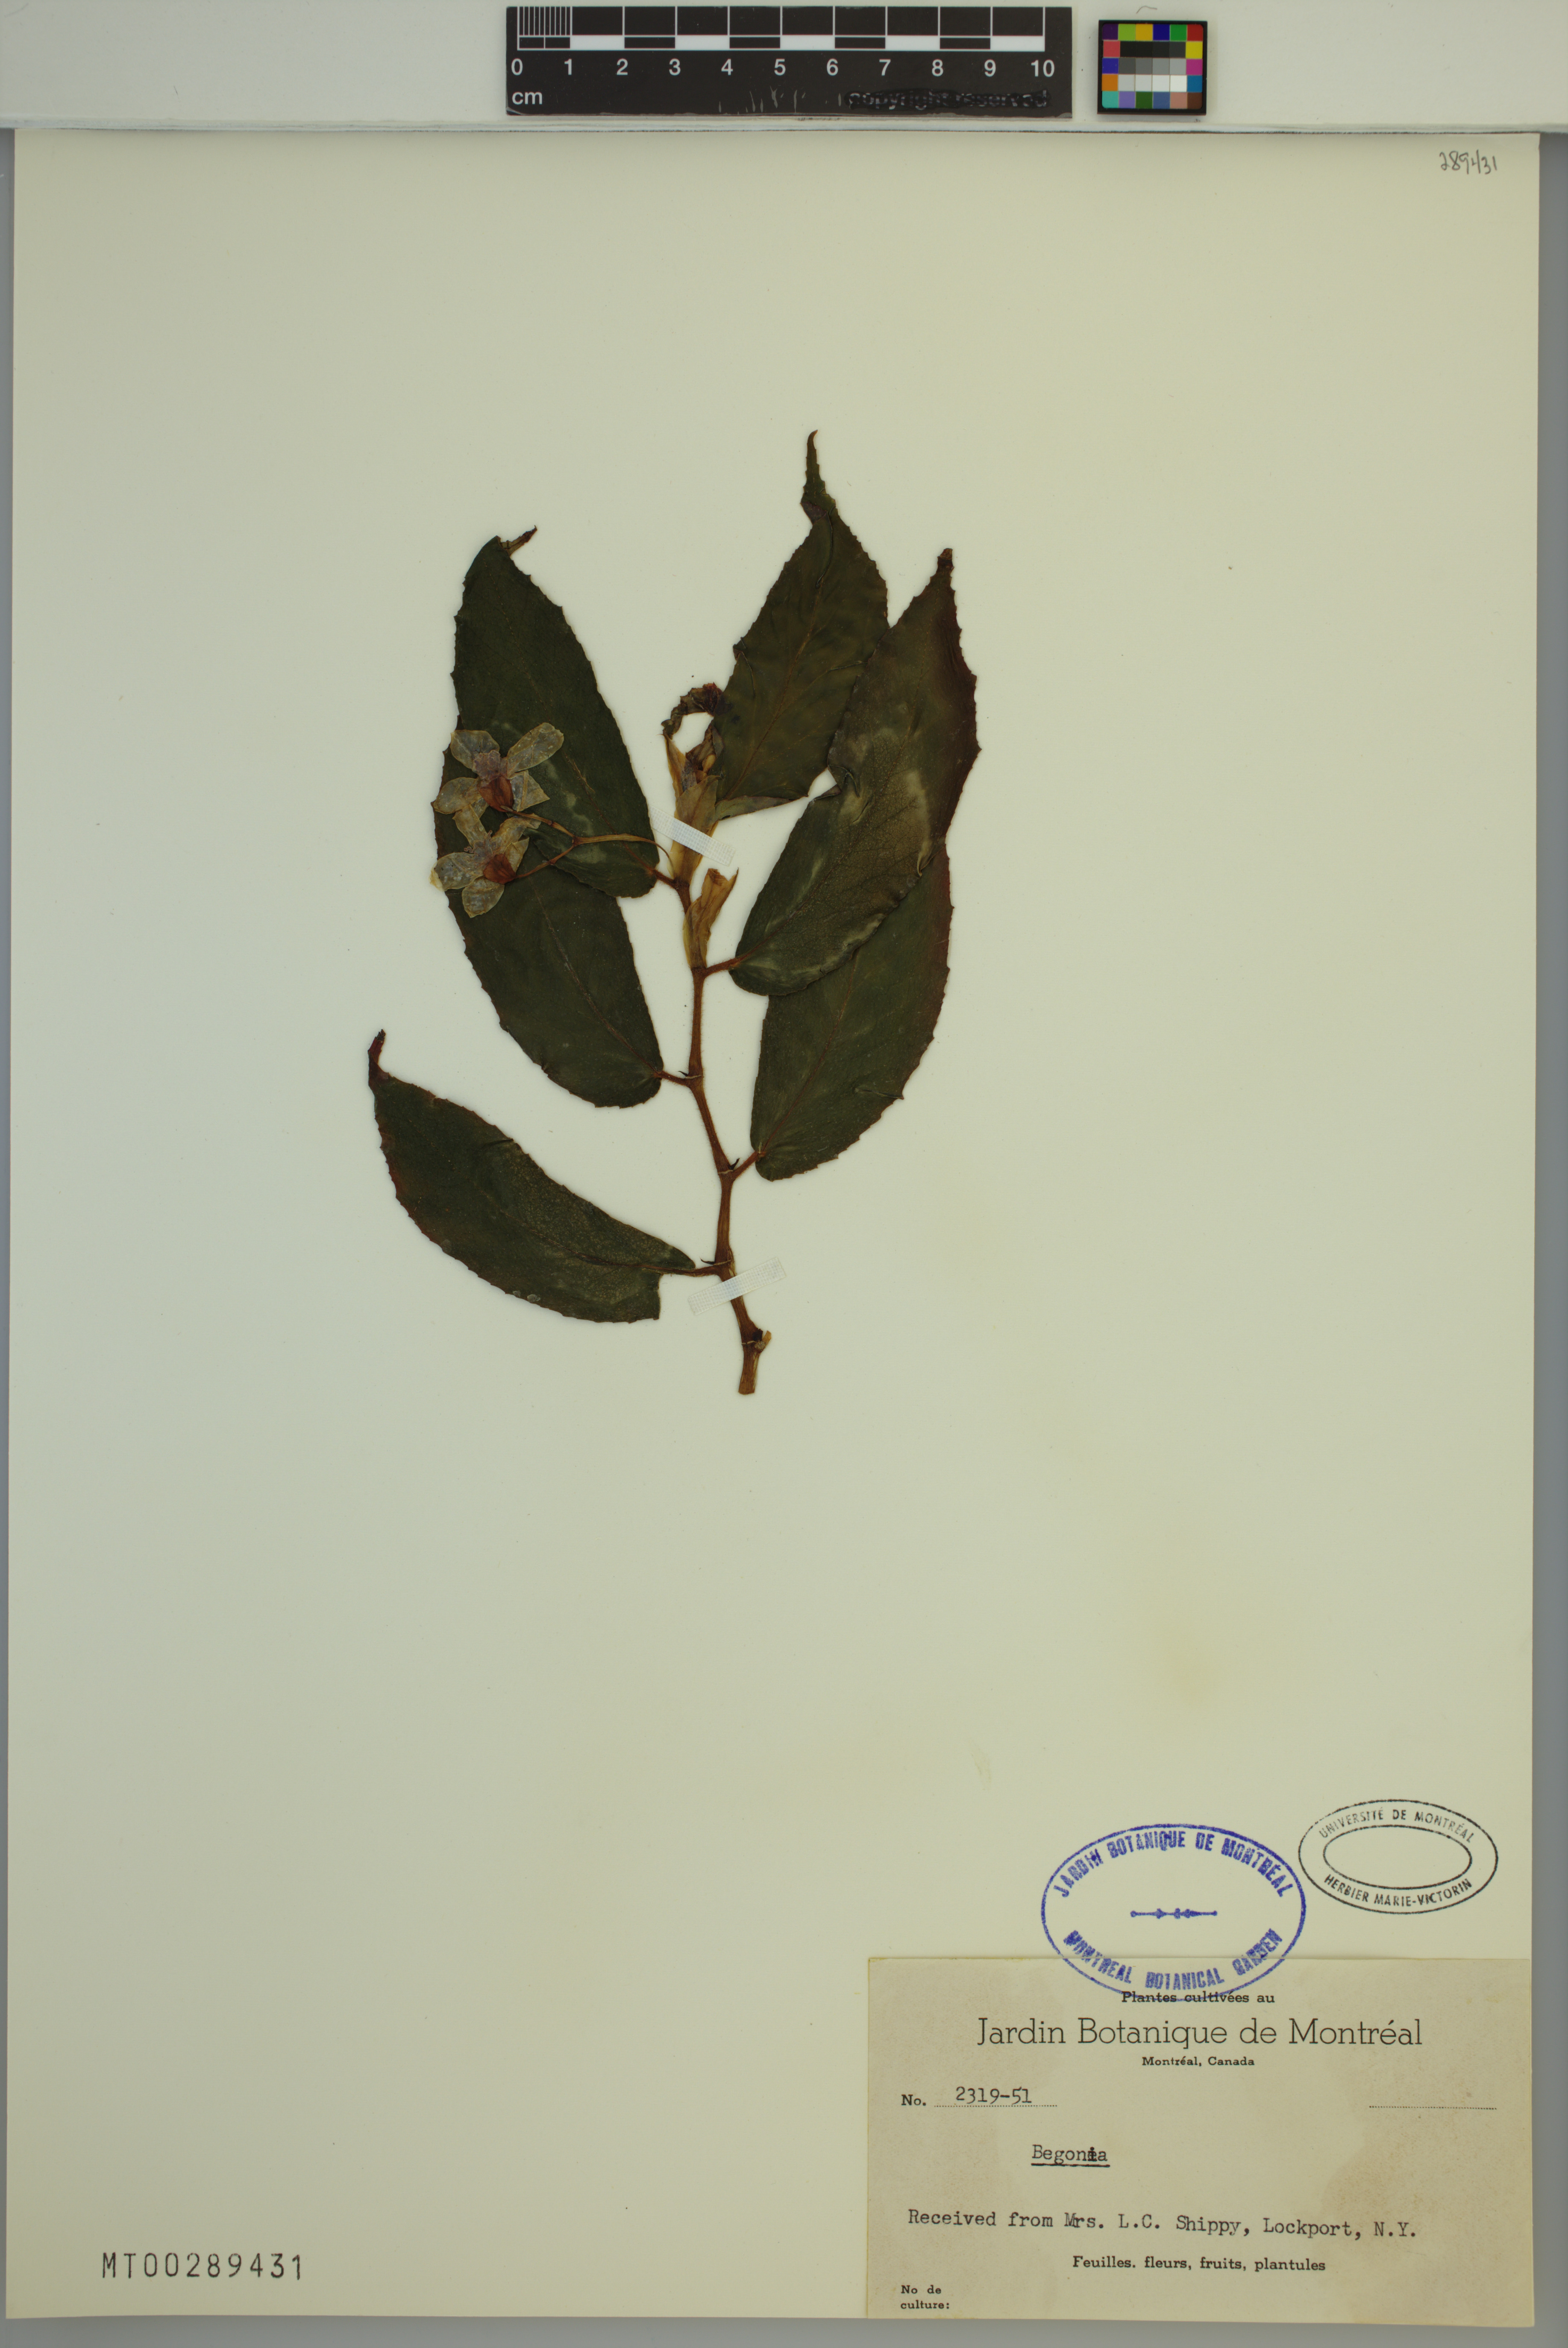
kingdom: Plantae
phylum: Tracheophyta
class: Magnoliopsida
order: Cucurbitales
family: Begoniaceae
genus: Begonia
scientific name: Begonia
